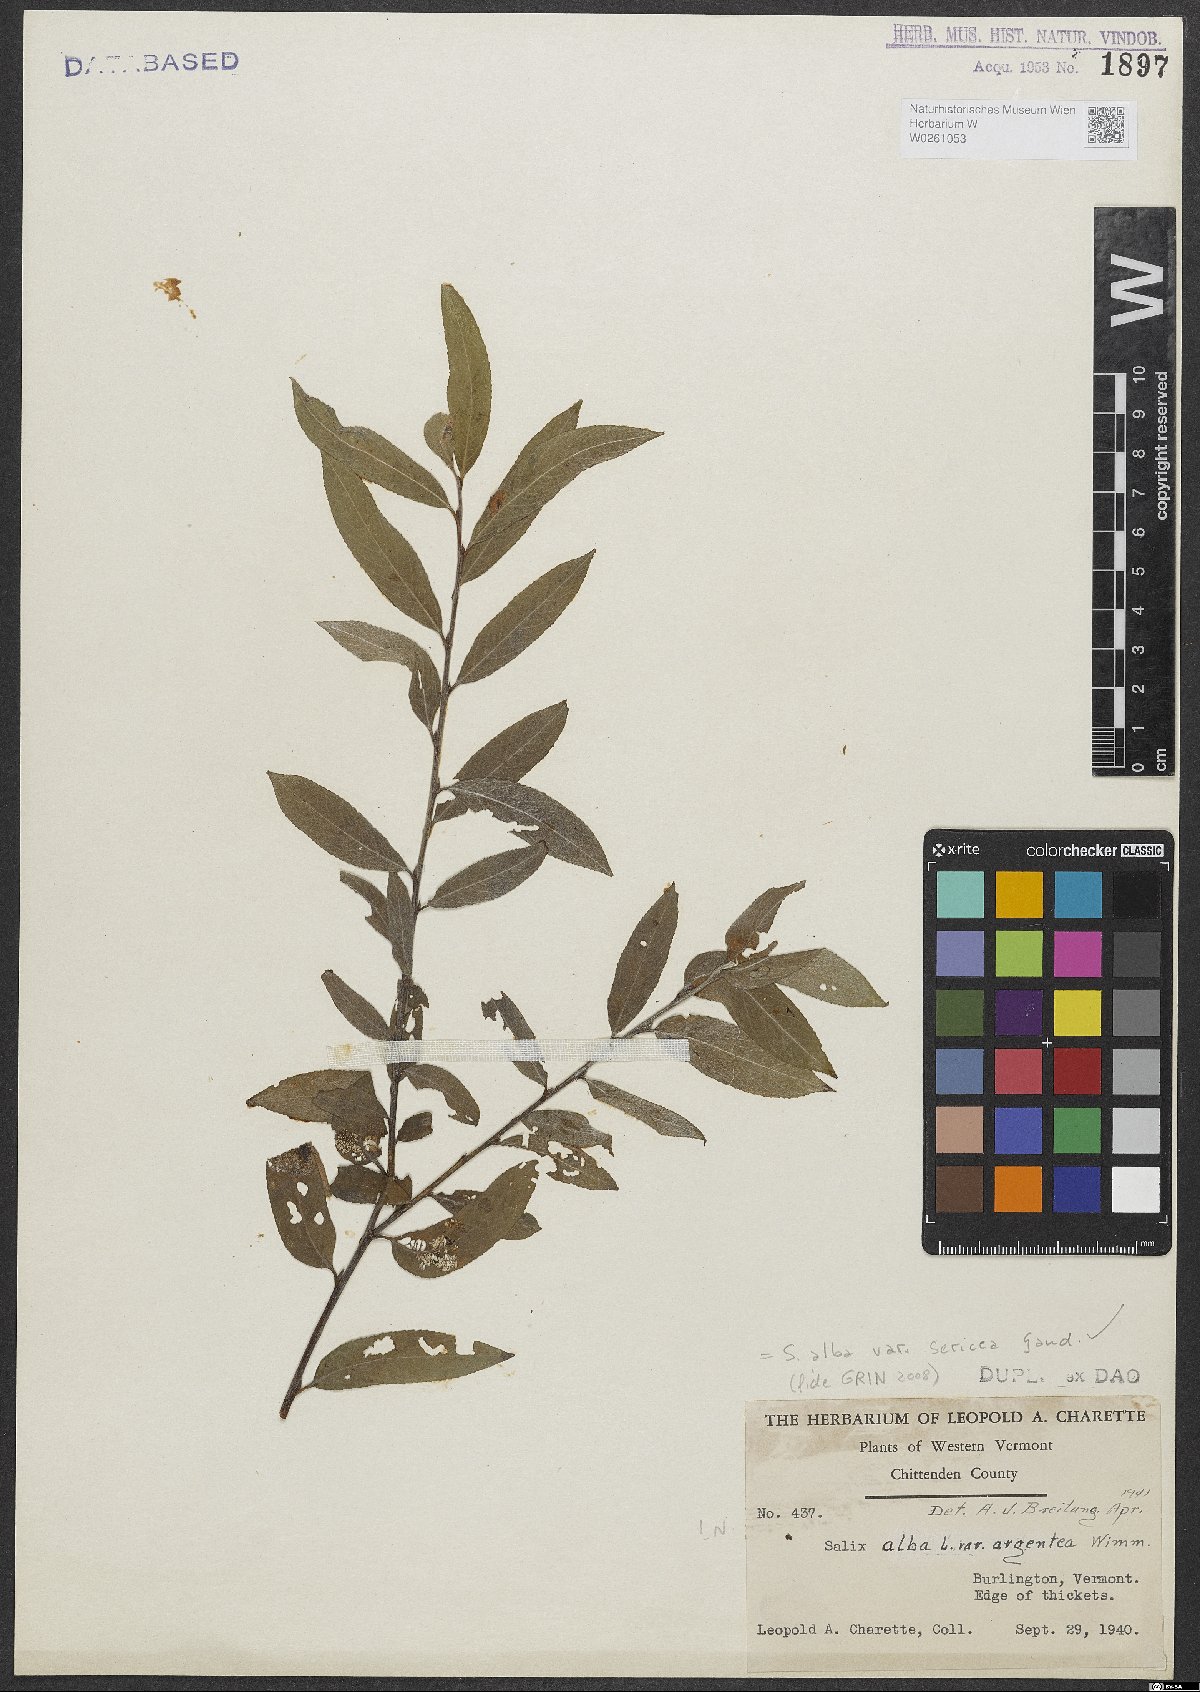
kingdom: Plantae
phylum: Tracheophyta
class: Magnoliopsida
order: Malpighiales
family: Salicaceae
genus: Salix
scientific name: Salix alba
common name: White willow
